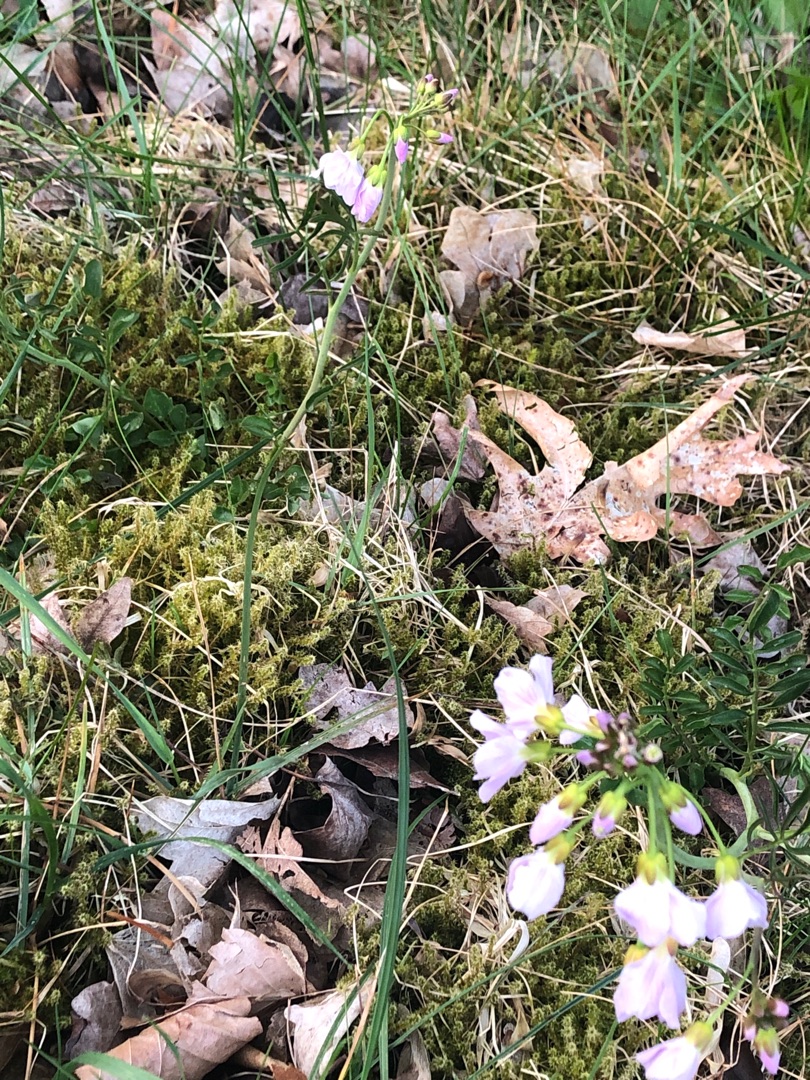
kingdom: Plantae
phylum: Tracheophyta
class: Magnoliopsida
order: Brassicales
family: Brassicaceae
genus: Cardamine
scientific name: Cardamine pratensis
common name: Engkarse
